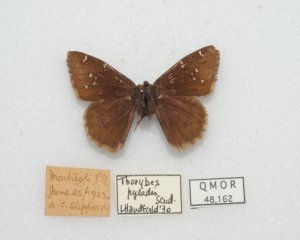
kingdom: Animalia
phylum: Arthropoda
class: Insecta
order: Lepidoptera
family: Hesperiidae
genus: Autochton
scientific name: Autochton
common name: Northern Cloudywing
